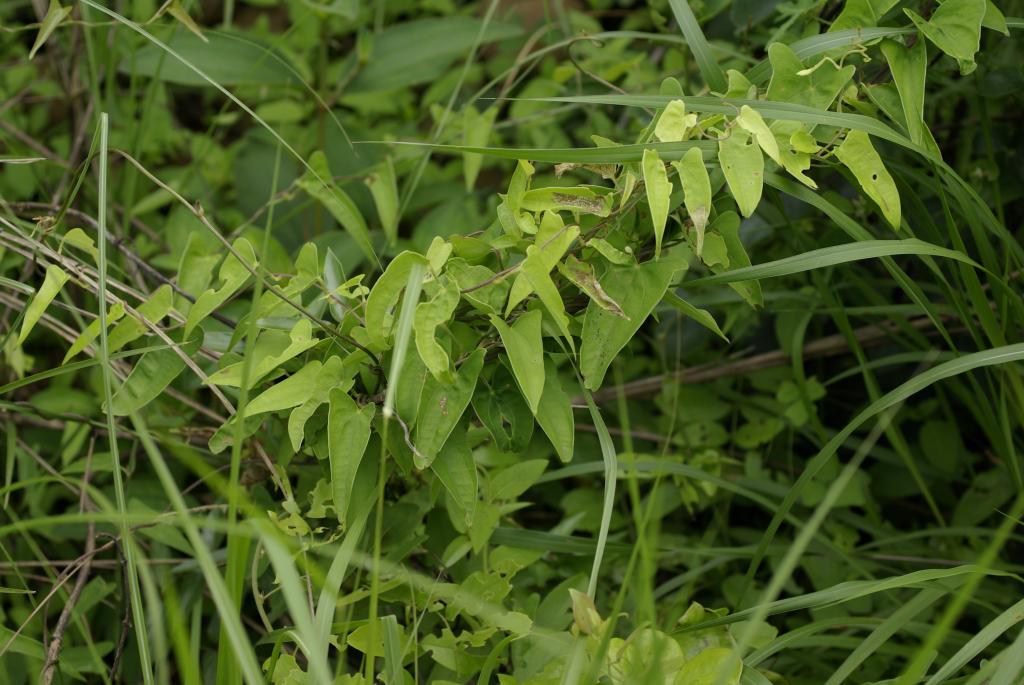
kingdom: Plantae
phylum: Tracheophyta
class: Liliopsida
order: Dioscoreales
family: Dioscoreaceae
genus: Dioscorea
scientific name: Dioscorea japonica
